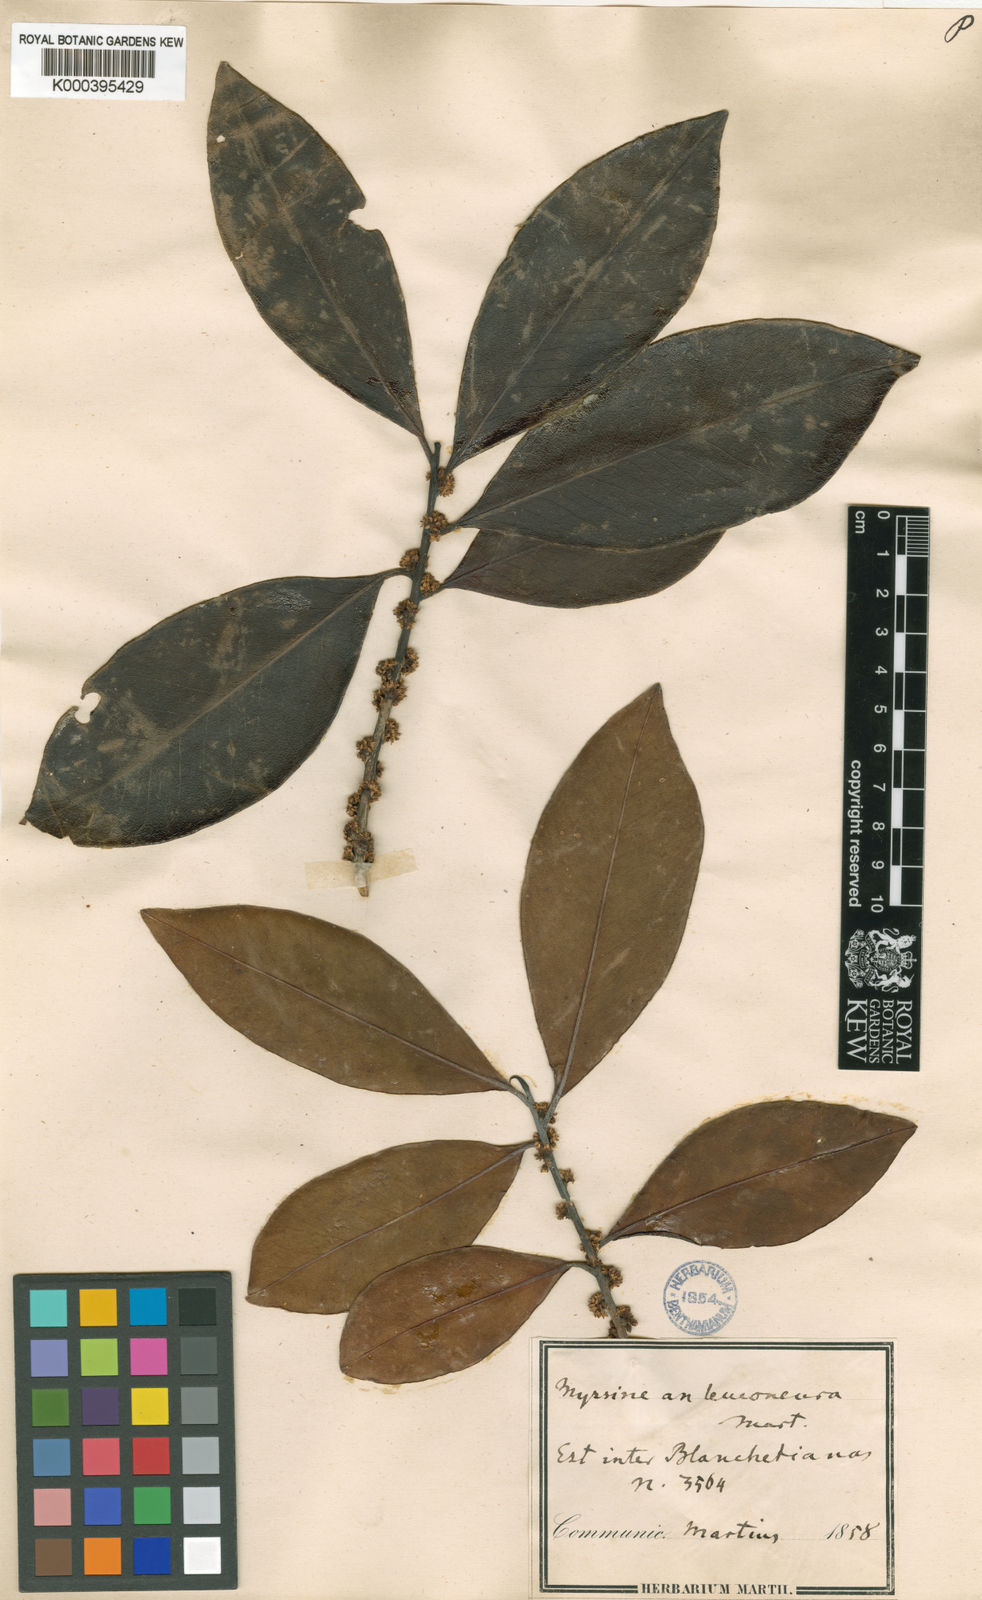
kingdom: Plantae
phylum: Tracheophyta
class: Magnoliopsida
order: Ericales
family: Primulaceae
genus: Myrsine
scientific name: Myrsine lineata
